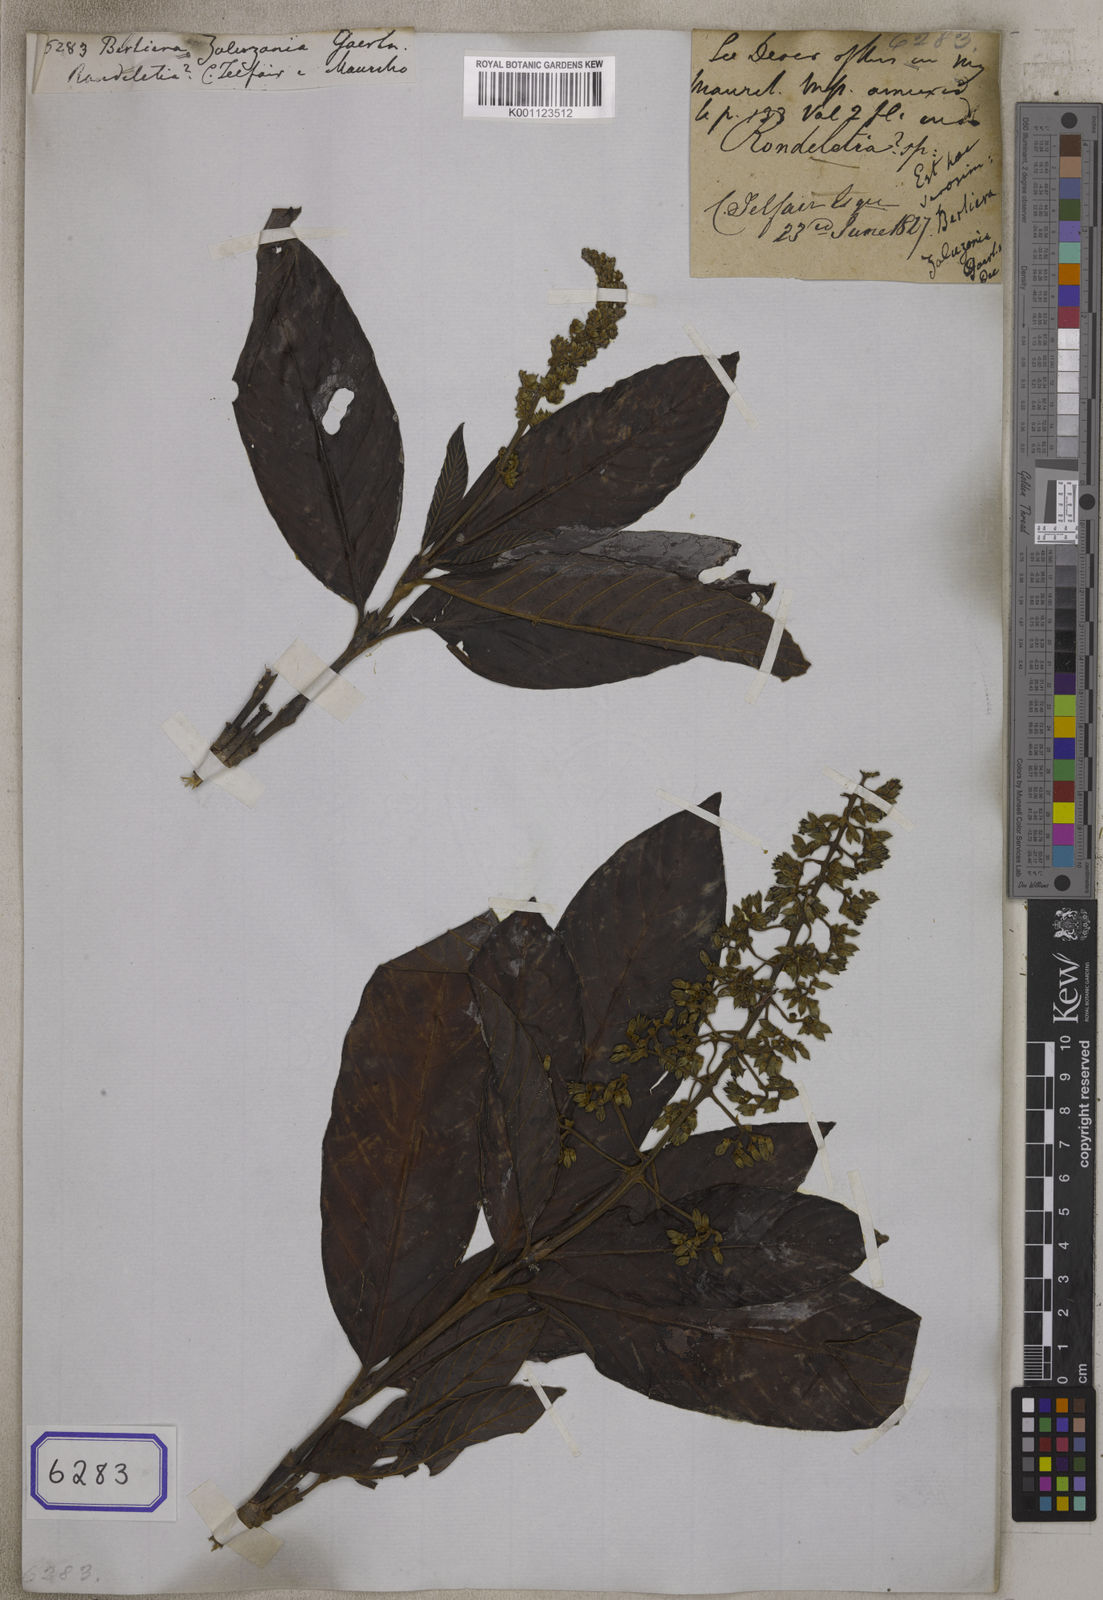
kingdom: Plantae
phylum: Tracheophyta
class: Magnoliopsida
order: Gentianales
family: Rubiaceae
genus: Bertiera
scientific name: Bertiera zaluzania
